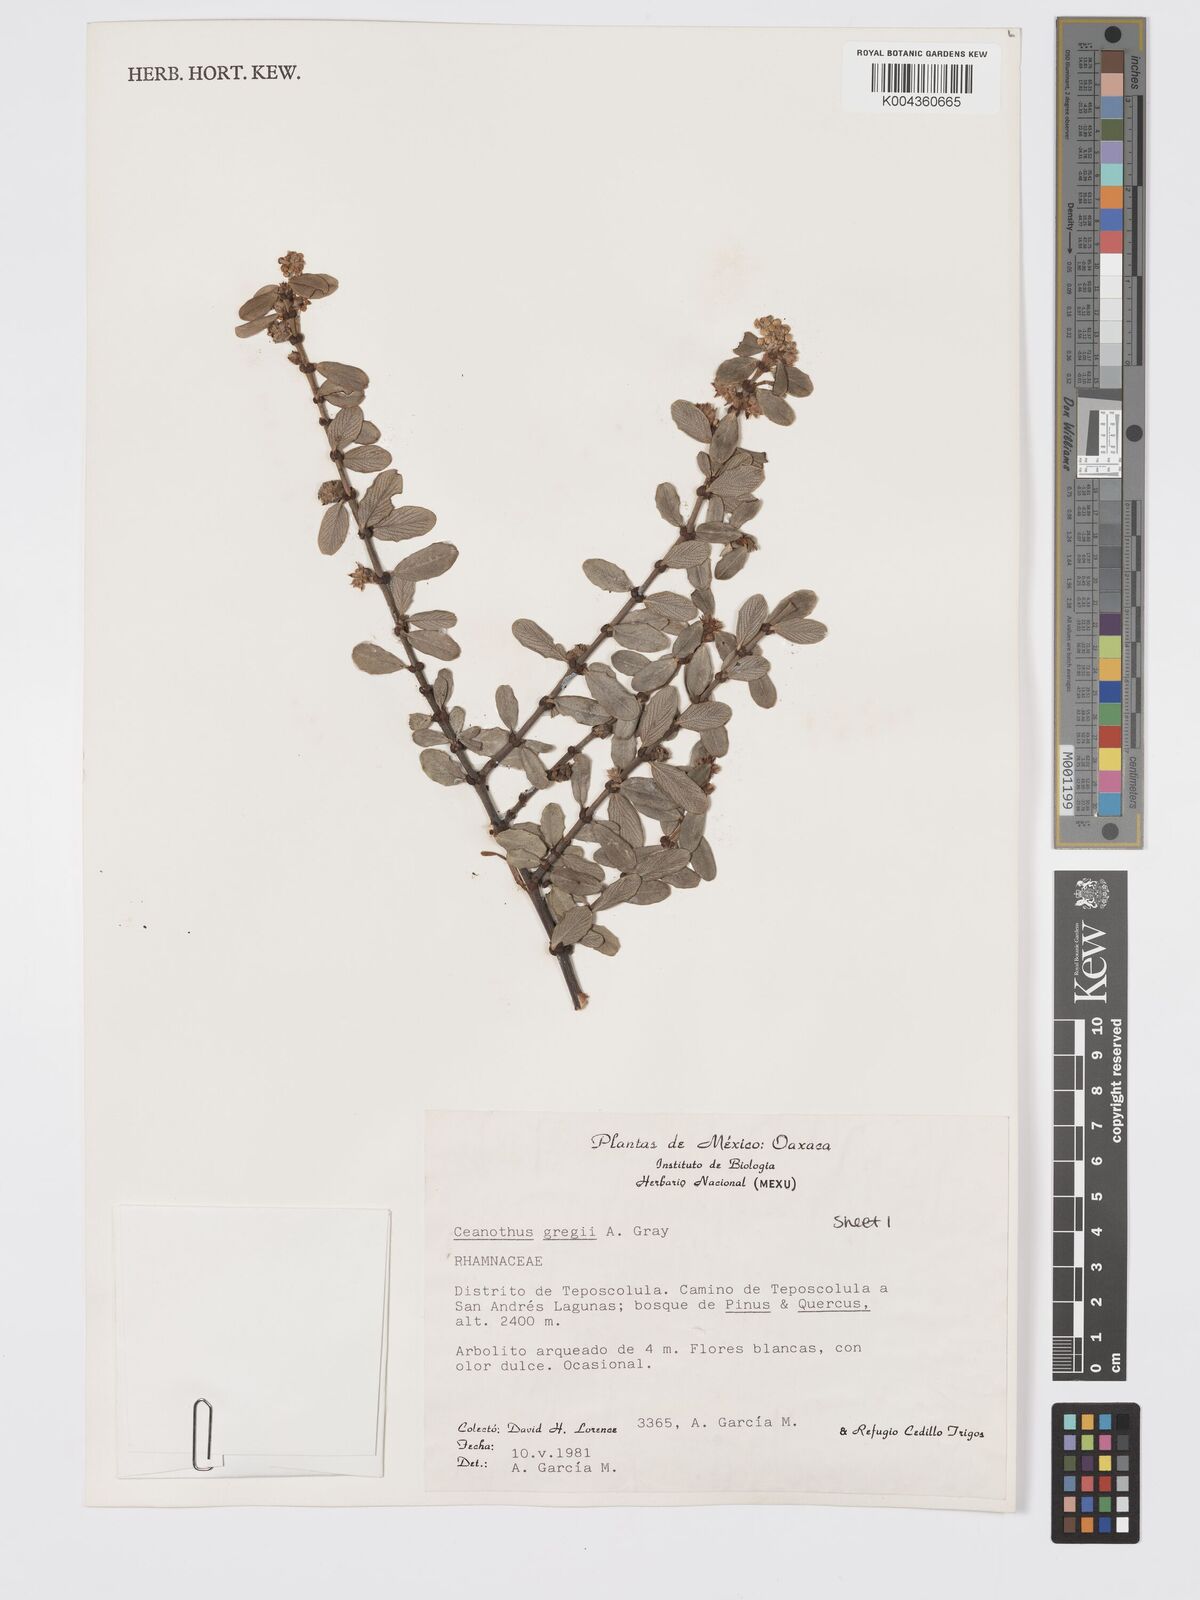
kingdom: Plantae
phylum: Tracheophyta
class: Magnoliopsida
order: Rosales
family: Rhamnaceae
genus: Ceanothus
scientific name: Ceanothus pauciflorus
